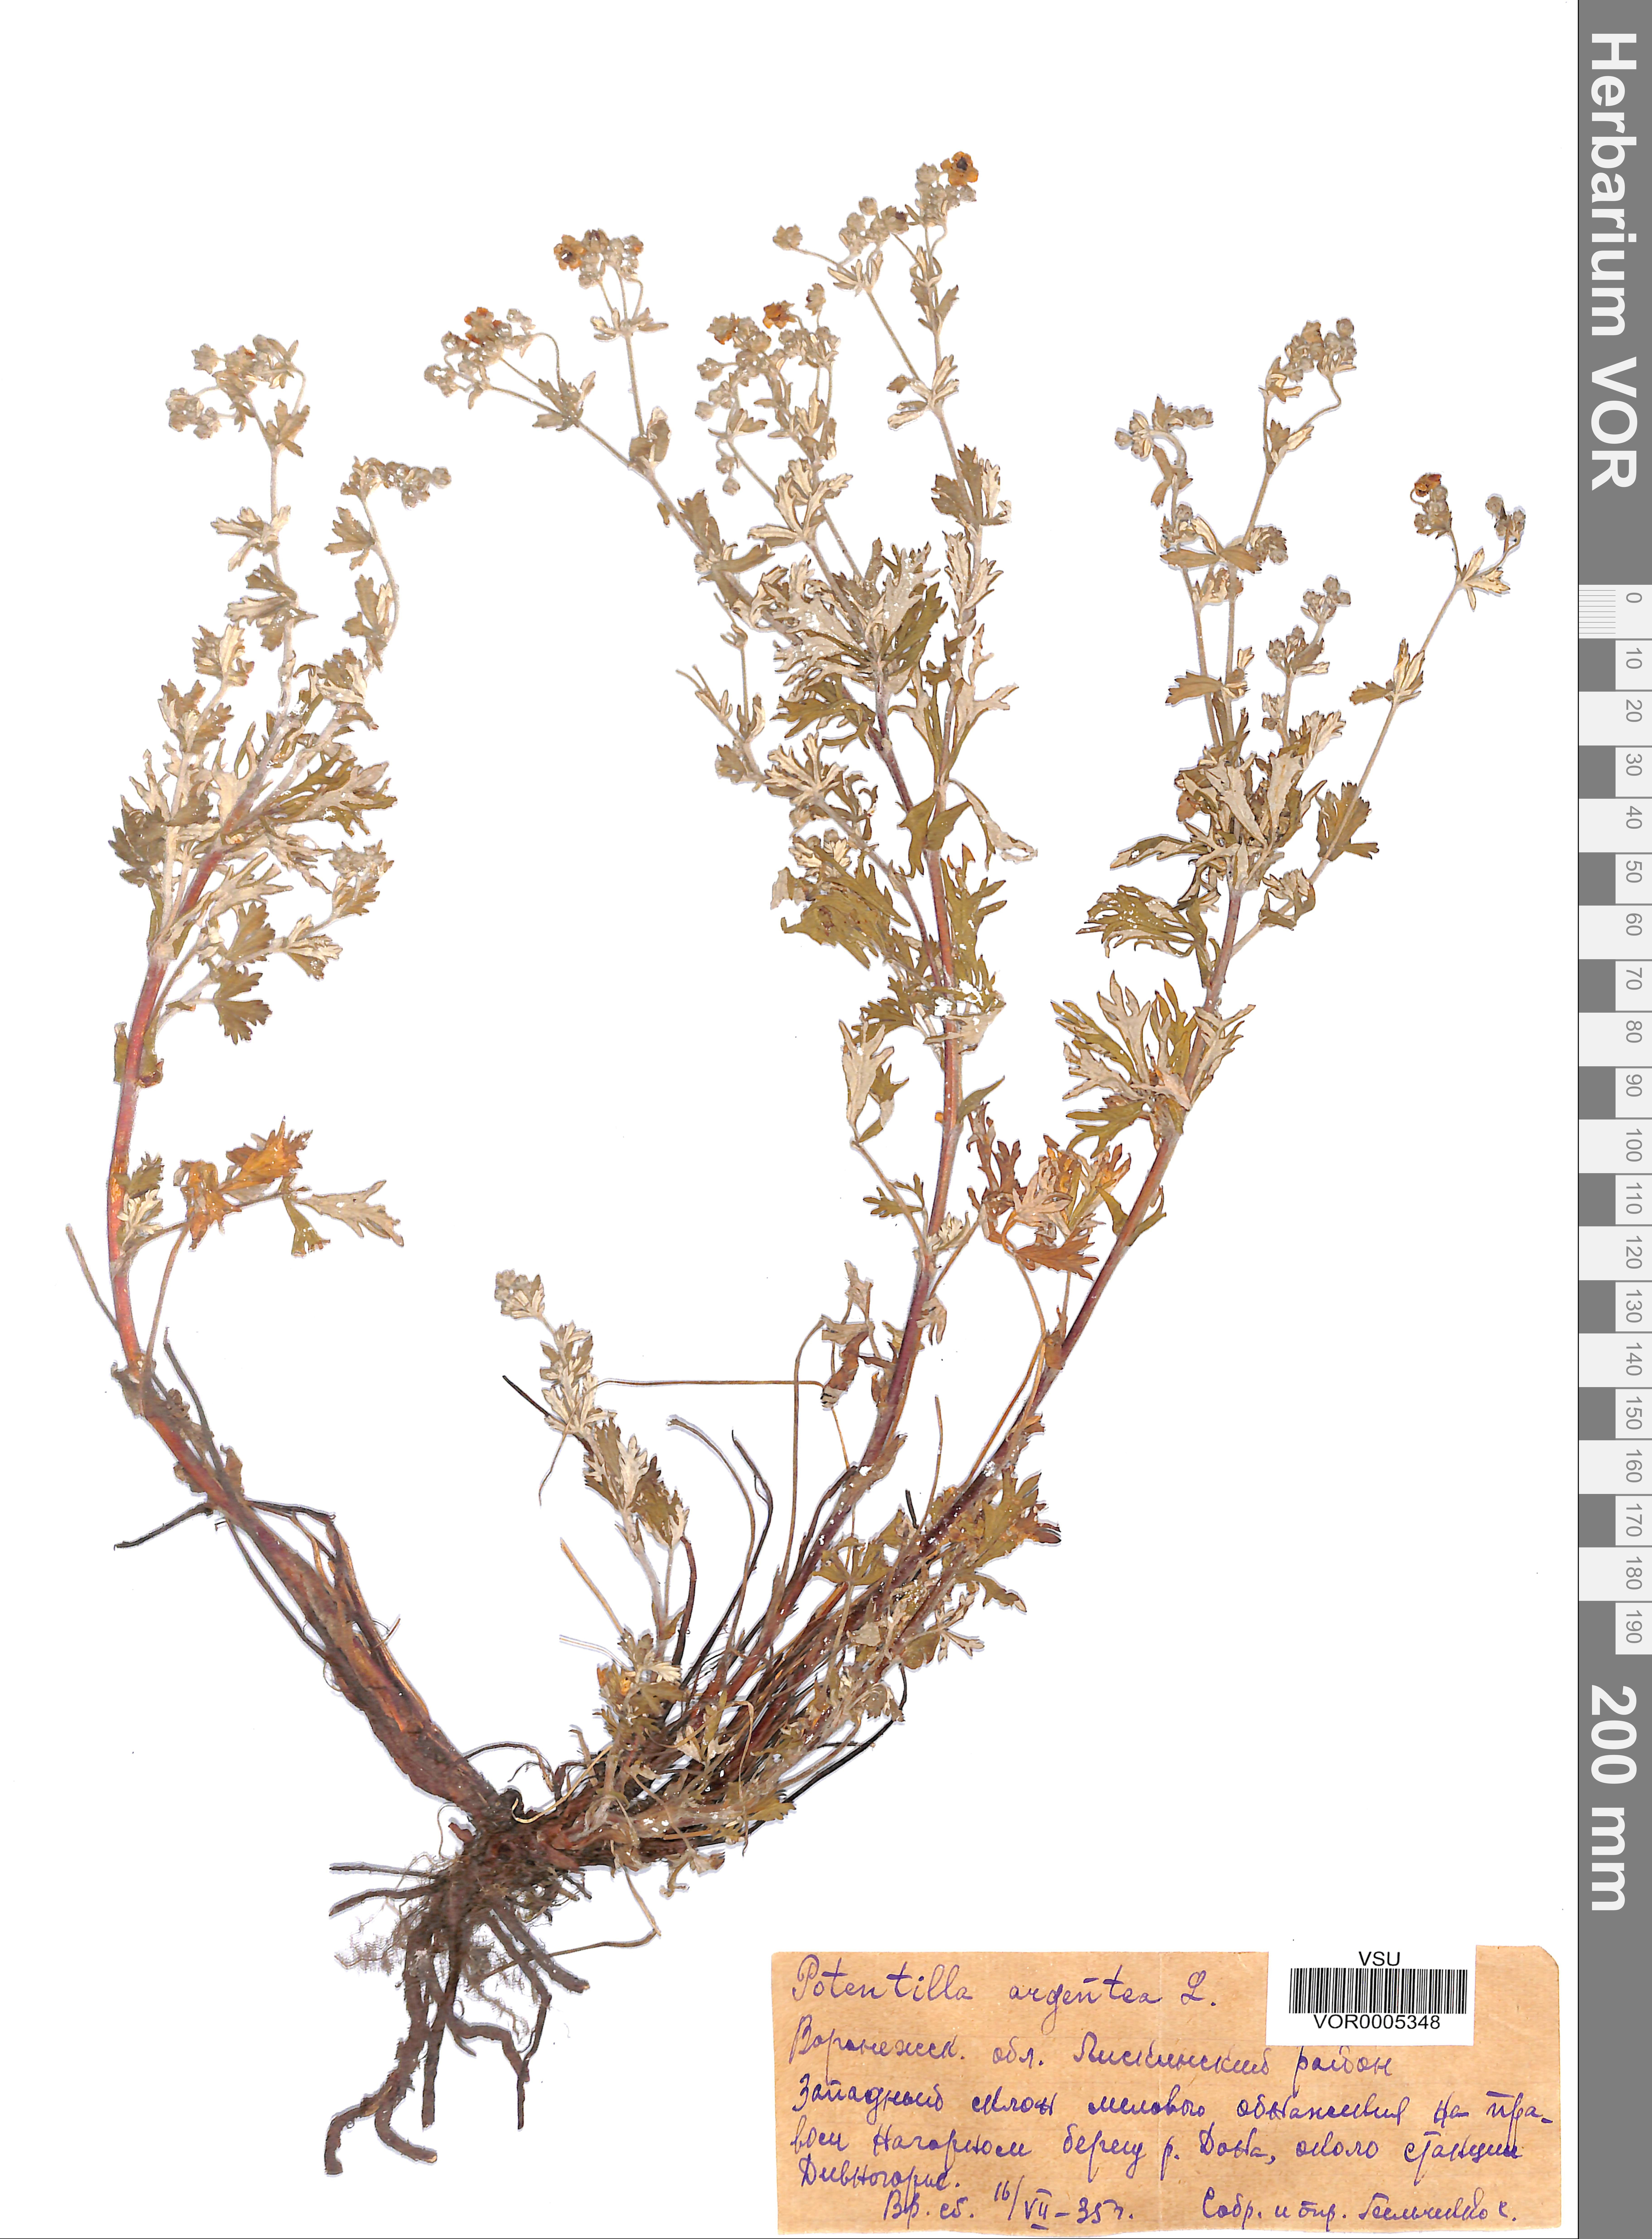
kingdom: Plantae
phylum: Tracheophyta
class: Magnoliopsida
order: Rosales
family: Rosaceae
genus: Potentilla
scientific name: Potentilla argentea
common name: Hoary cinquefoil
